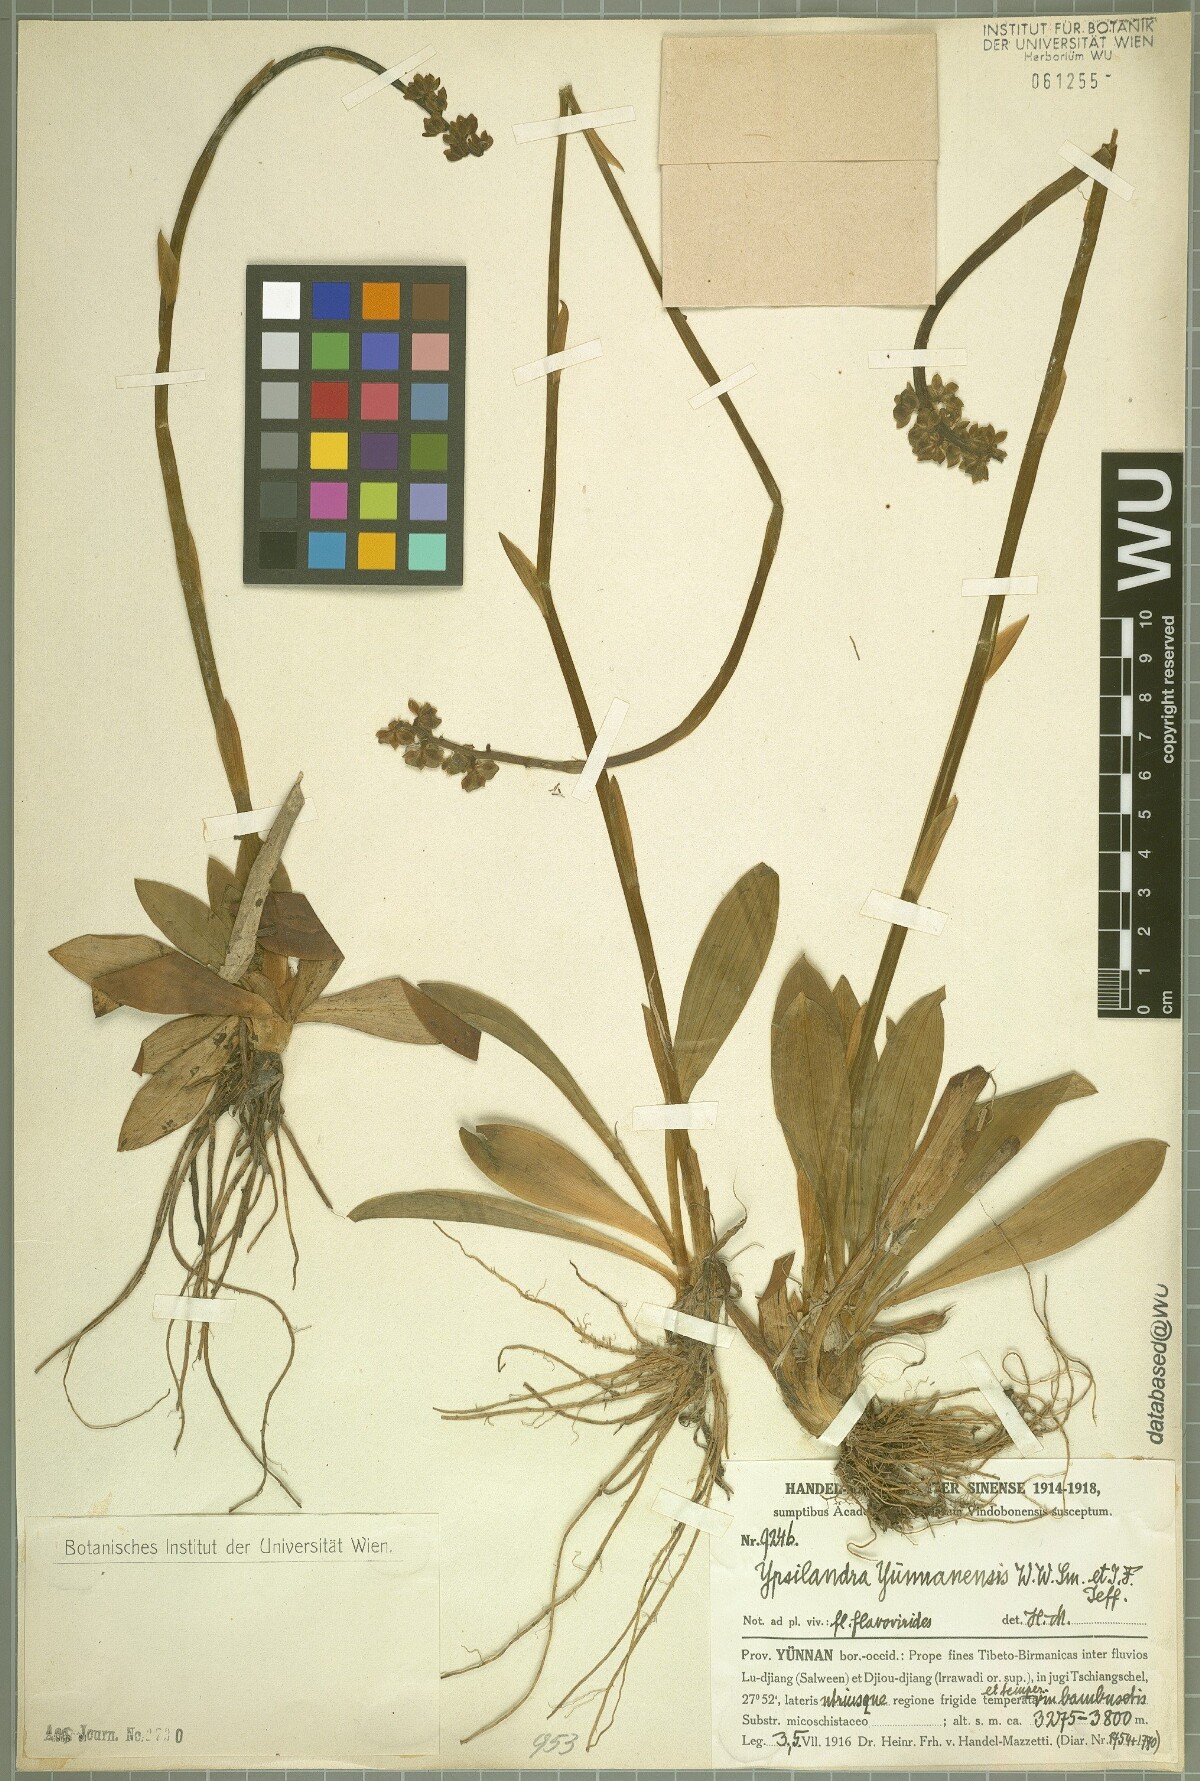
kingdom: Plantae
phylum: Tracheophyta
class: Liliopsida
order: Liliales
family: Melanthiaceae
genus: Helonias
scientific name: Helonias yunnanensis
